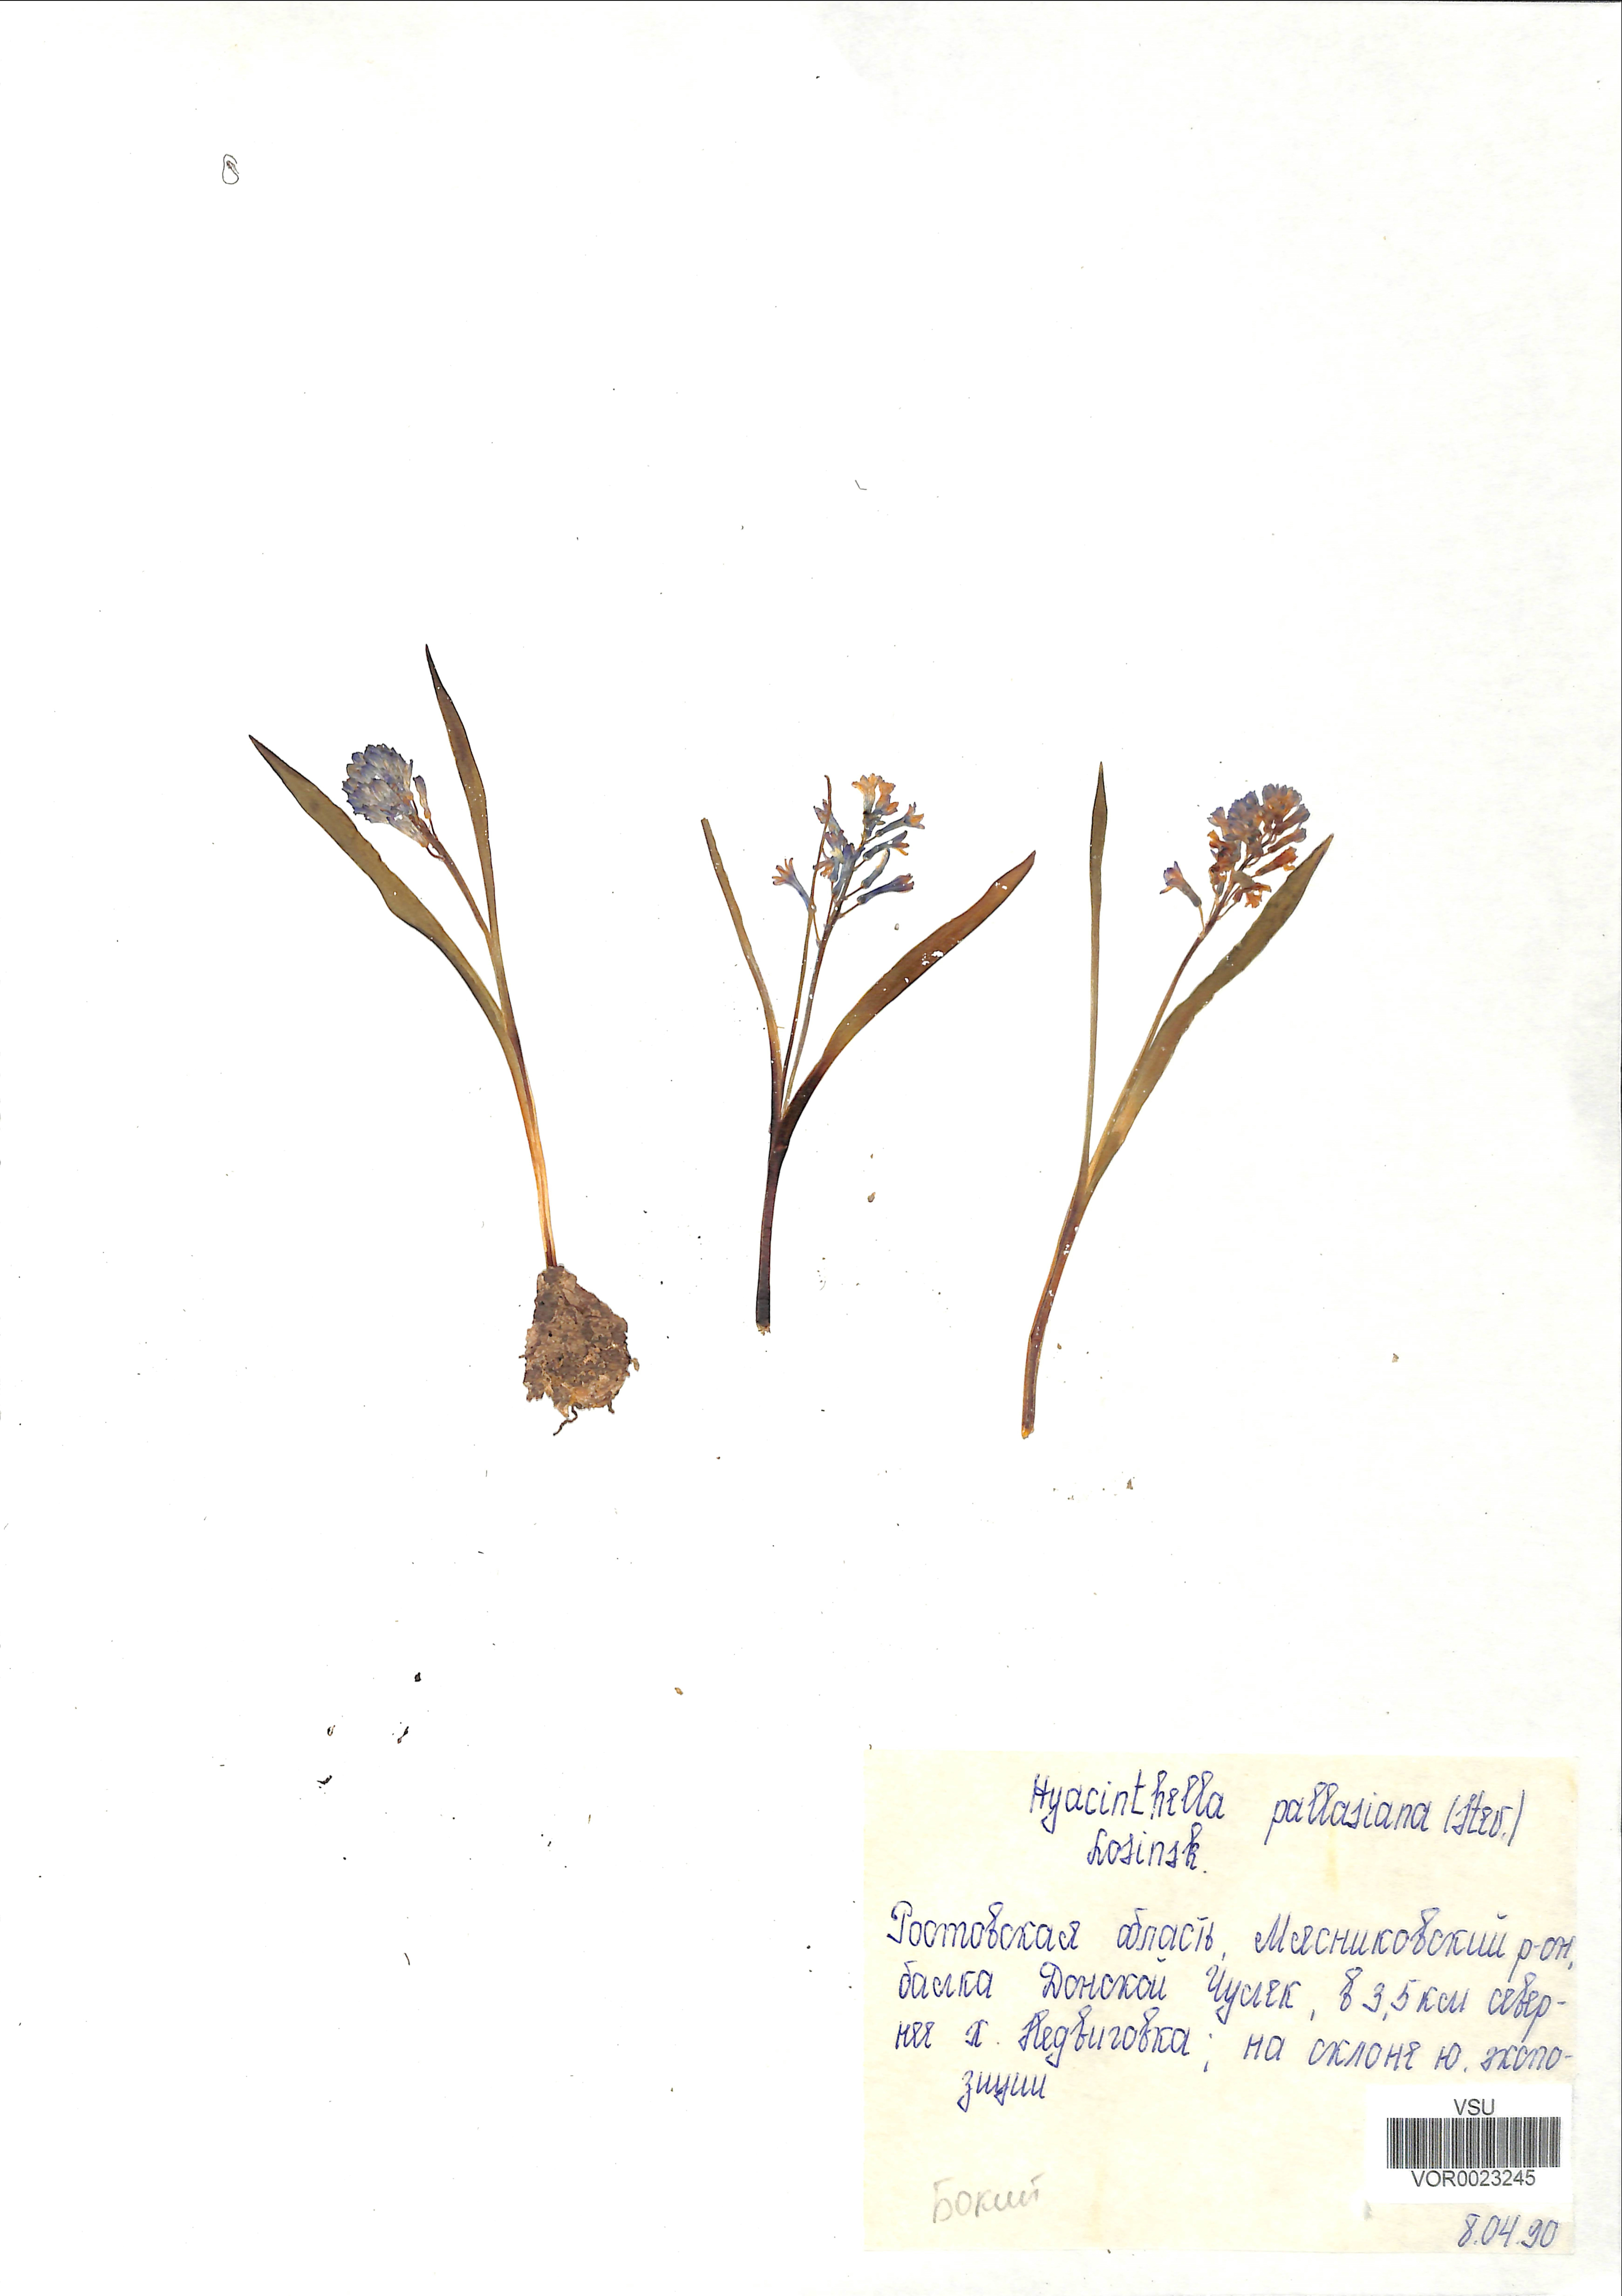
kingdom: Plantae
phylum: Tracheophyta
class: Liliopsida
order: Asparagales
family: Asparagaceae
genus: Hyacinthella
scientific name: Hyacinthella pallasiana
